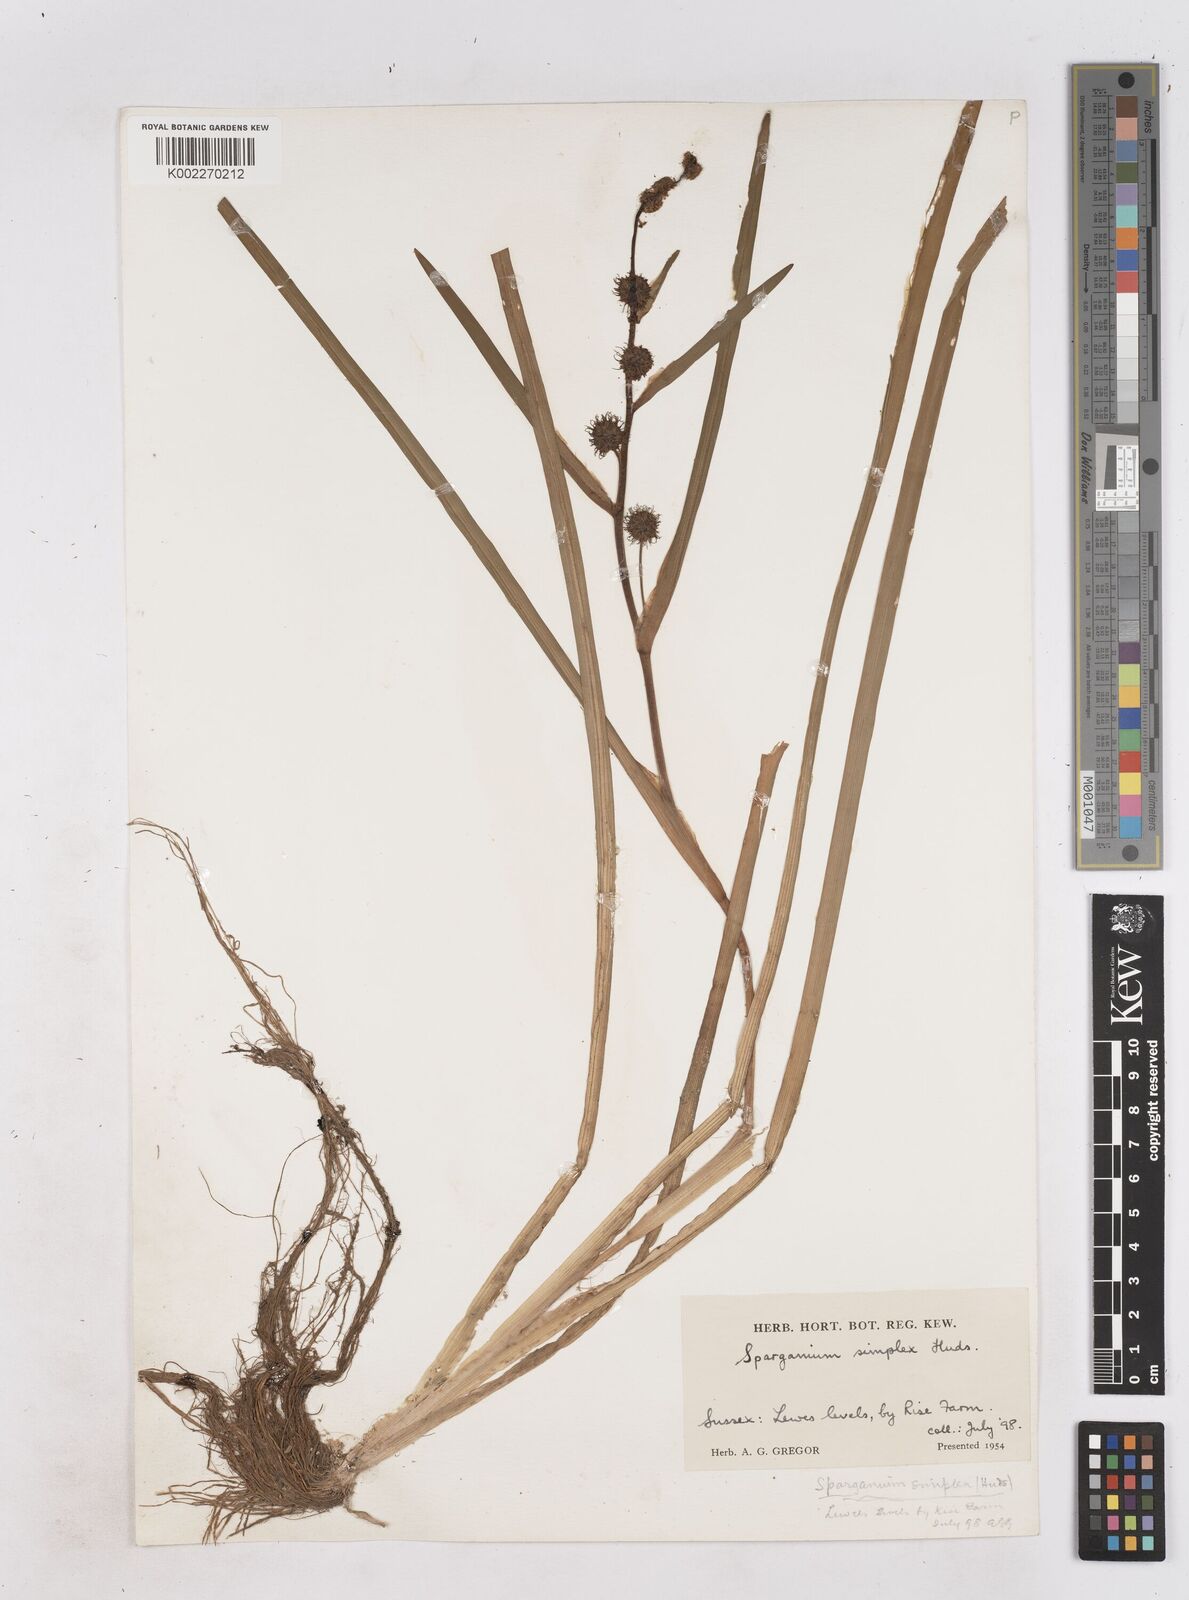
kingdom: Plantae
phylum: Tracheophyta
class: Liliopsida
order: Poales
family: Typhaceae
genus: Sparganium
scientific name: Sparganium emersum
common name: Unbranched bur-reed
